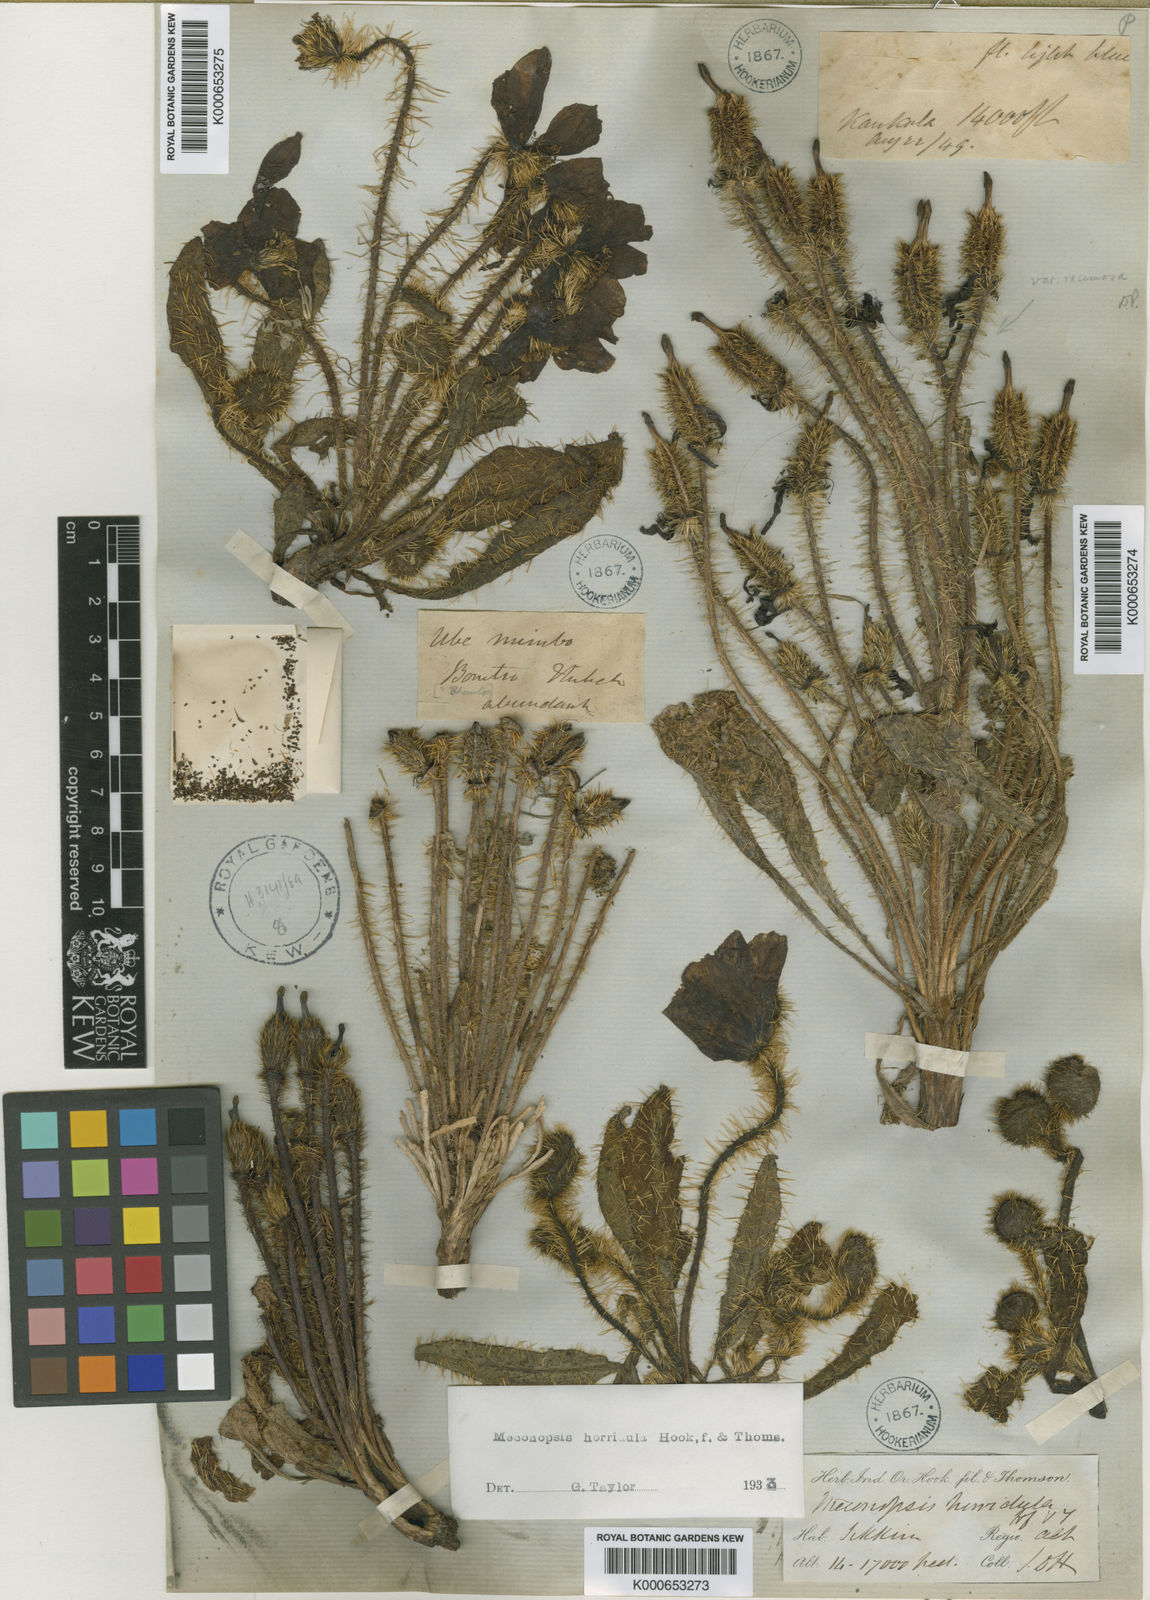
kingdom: Plantae
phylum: Tracheophyta
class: Magnoliopsida
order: Ranunculales
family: Papaveraceae
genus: Meconopsis
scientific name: Meconopsis horridula
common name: Prickly blue-poppy
